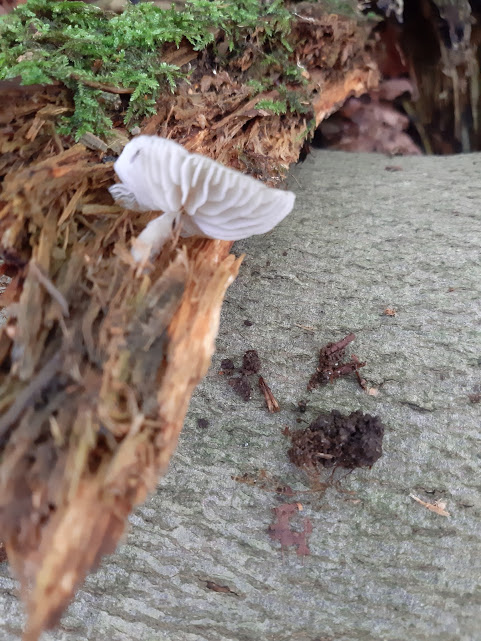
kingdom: Fungi
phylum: Basidiomycota
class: Agaricomycetes
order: Agaricales
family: Mycenaceae
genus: Mycena
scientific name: Mycena galericulata
